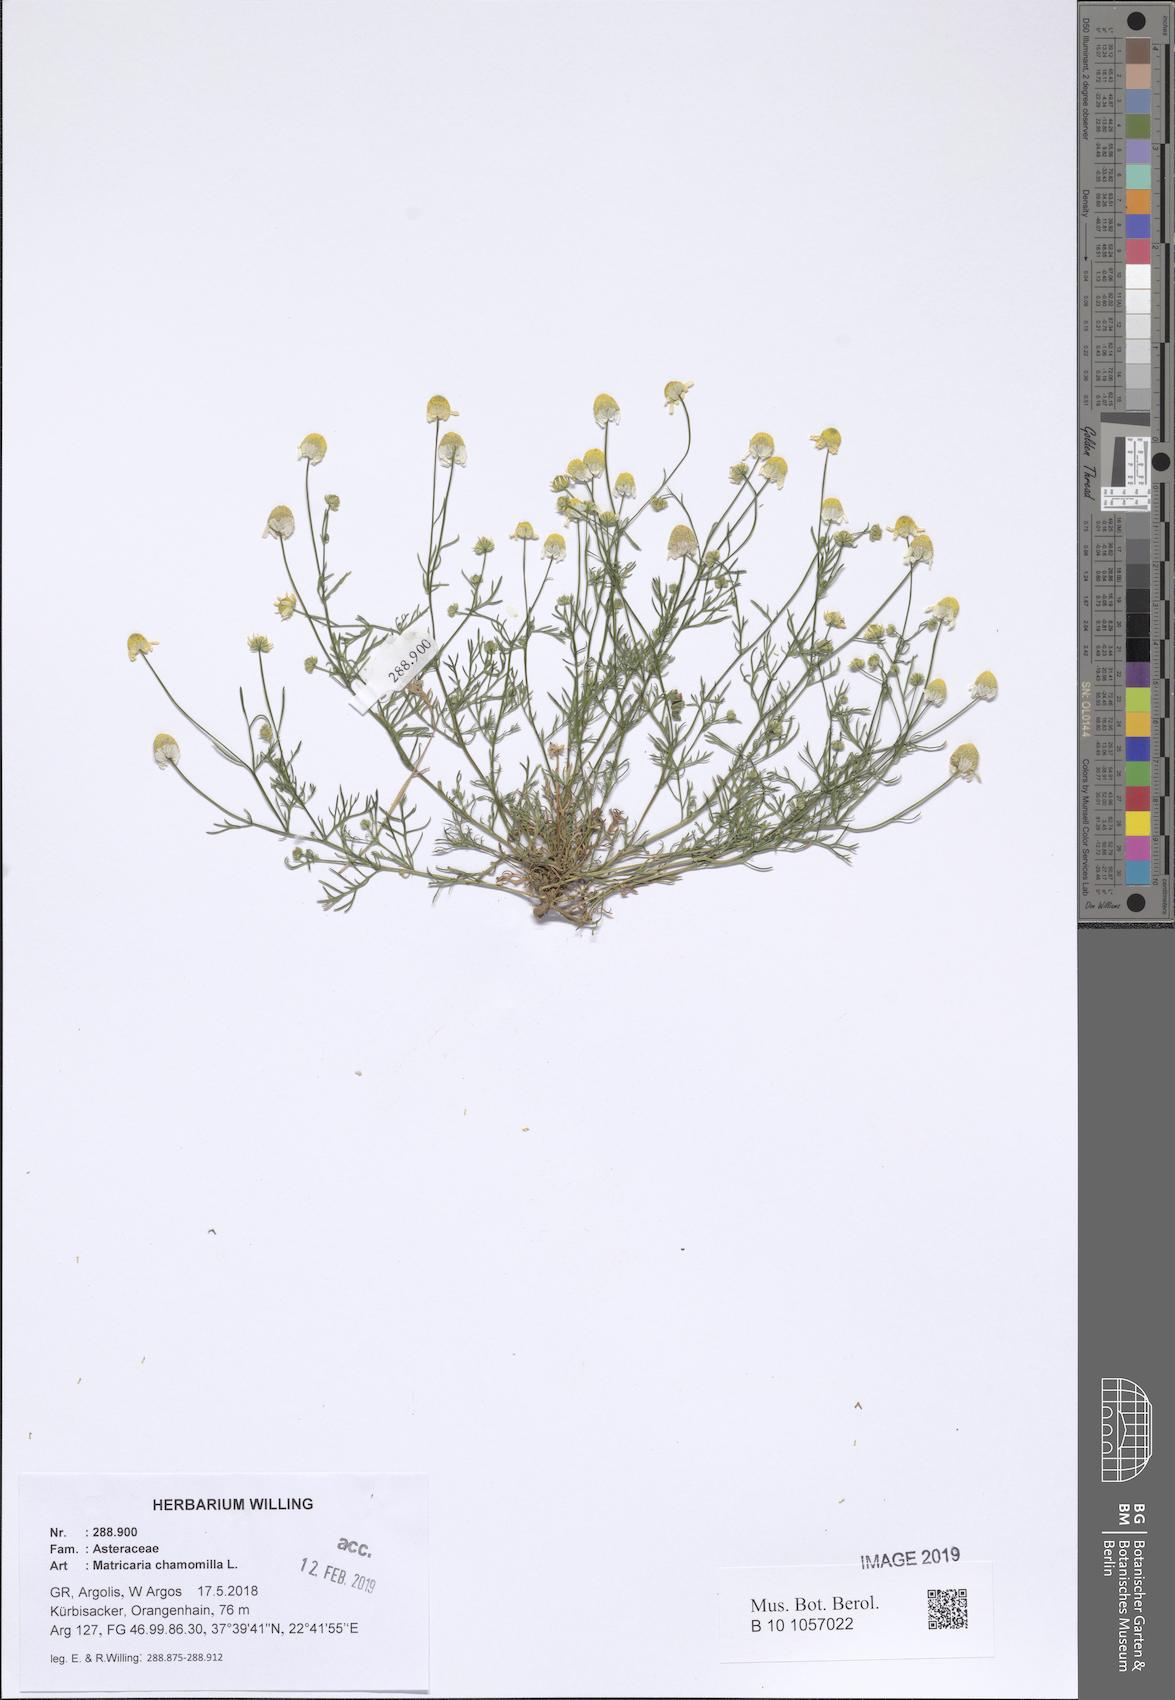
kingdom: Plantae
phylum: Tracheophyta
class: Magnoliopsida
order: Asterales
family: Asteraceae
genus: Matricaria
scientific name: Matricaria chamomilla
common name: Scented mayweed
